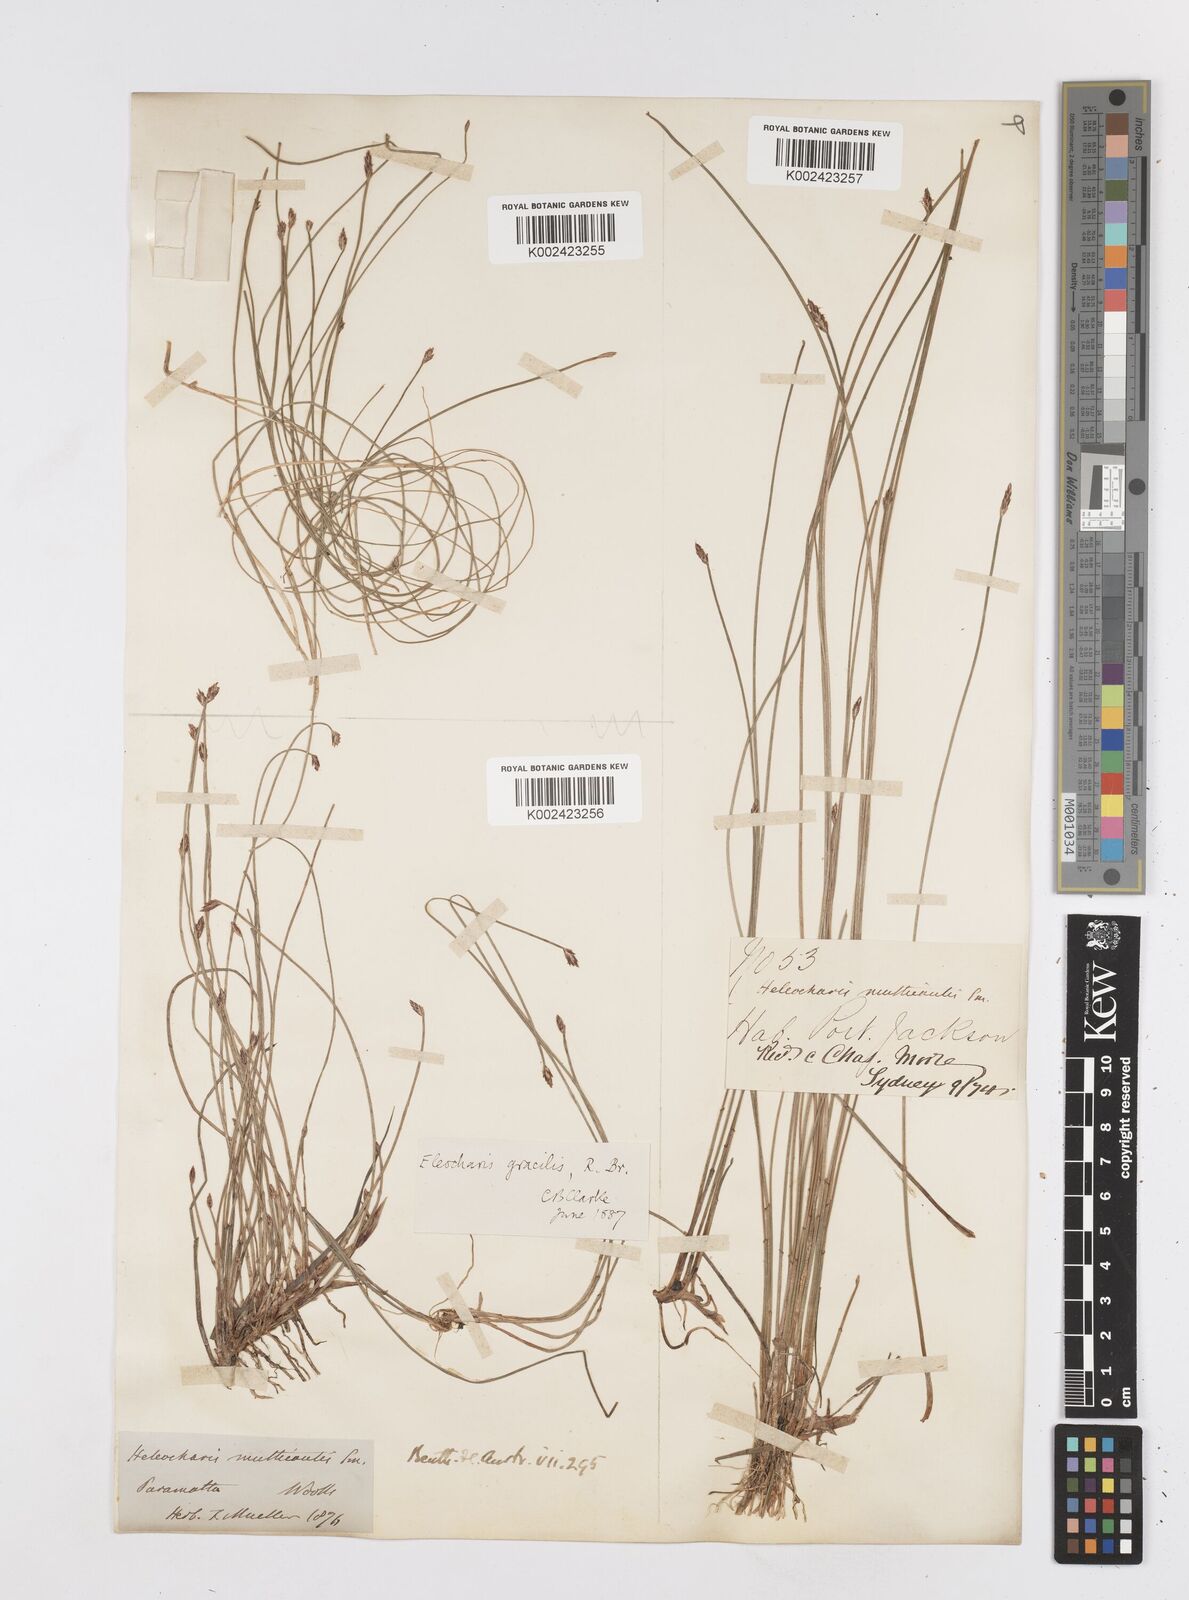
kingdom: Plantae
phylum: Tracheophyta
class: Liliopsida
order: Poales
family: Cyperaceae
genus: Eleocharis
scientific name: Eleocharis multicaulis
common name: Many-stalked spike-rush
